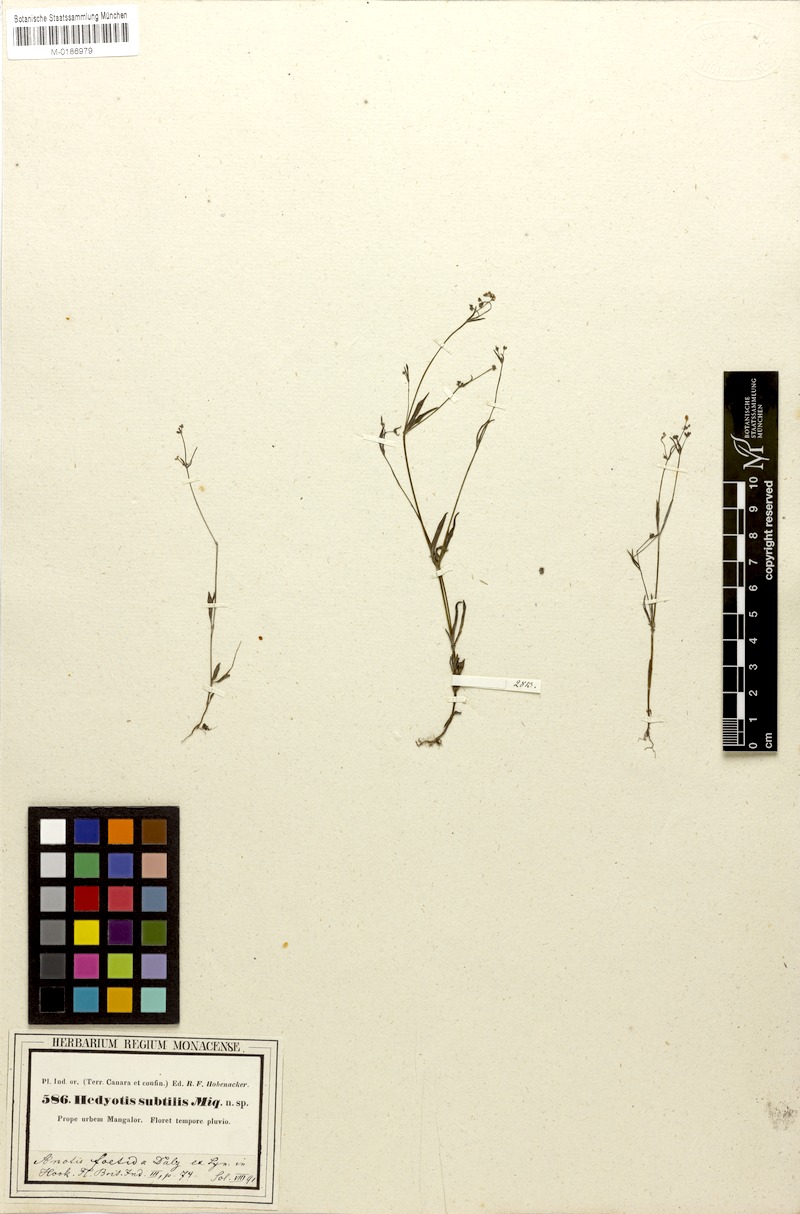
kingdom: Plantae
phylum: Tracheophyta
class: Magnoliopsida
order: Gentianales
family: Rubiaceae
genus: Neanotis
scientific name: Neanotis subtilis
